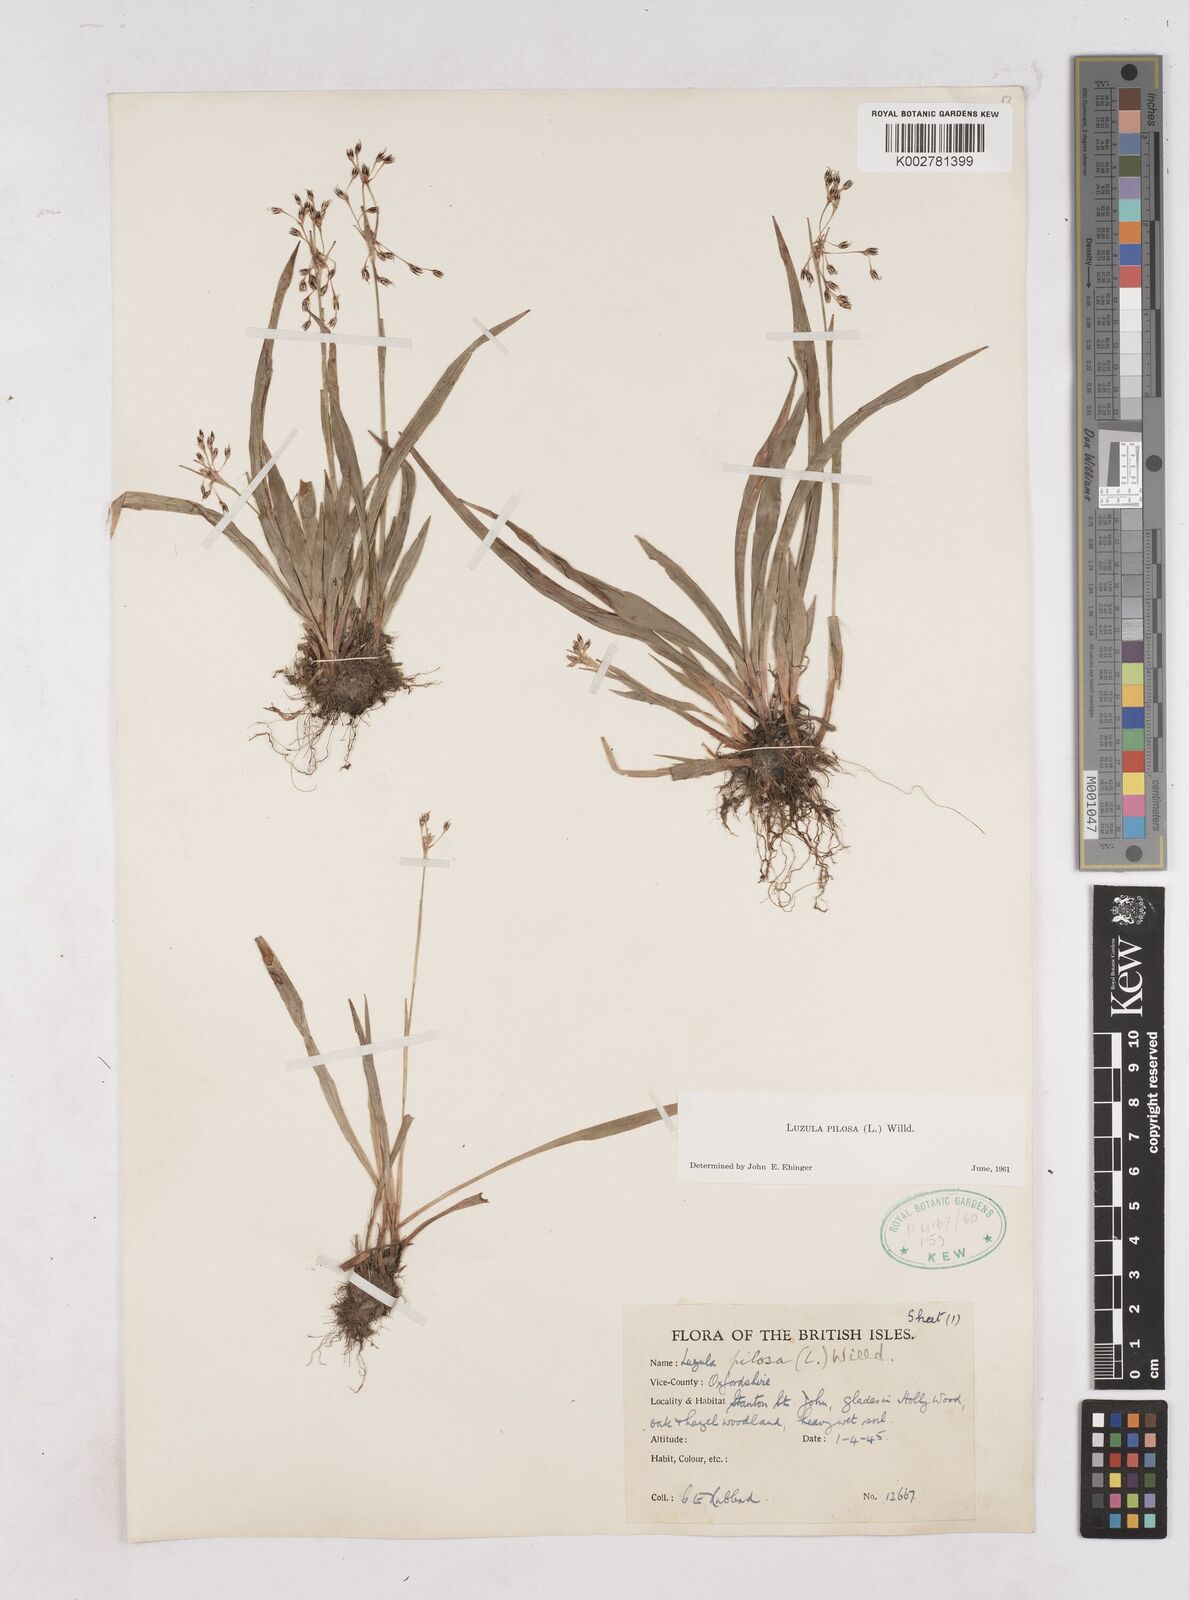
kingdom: Plantae
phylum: Tracheophyta
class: Liliopsida
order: Poales
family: Juncaceae
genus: Luzula
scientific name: Luzula pilosa
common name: Hairy wood-rush
